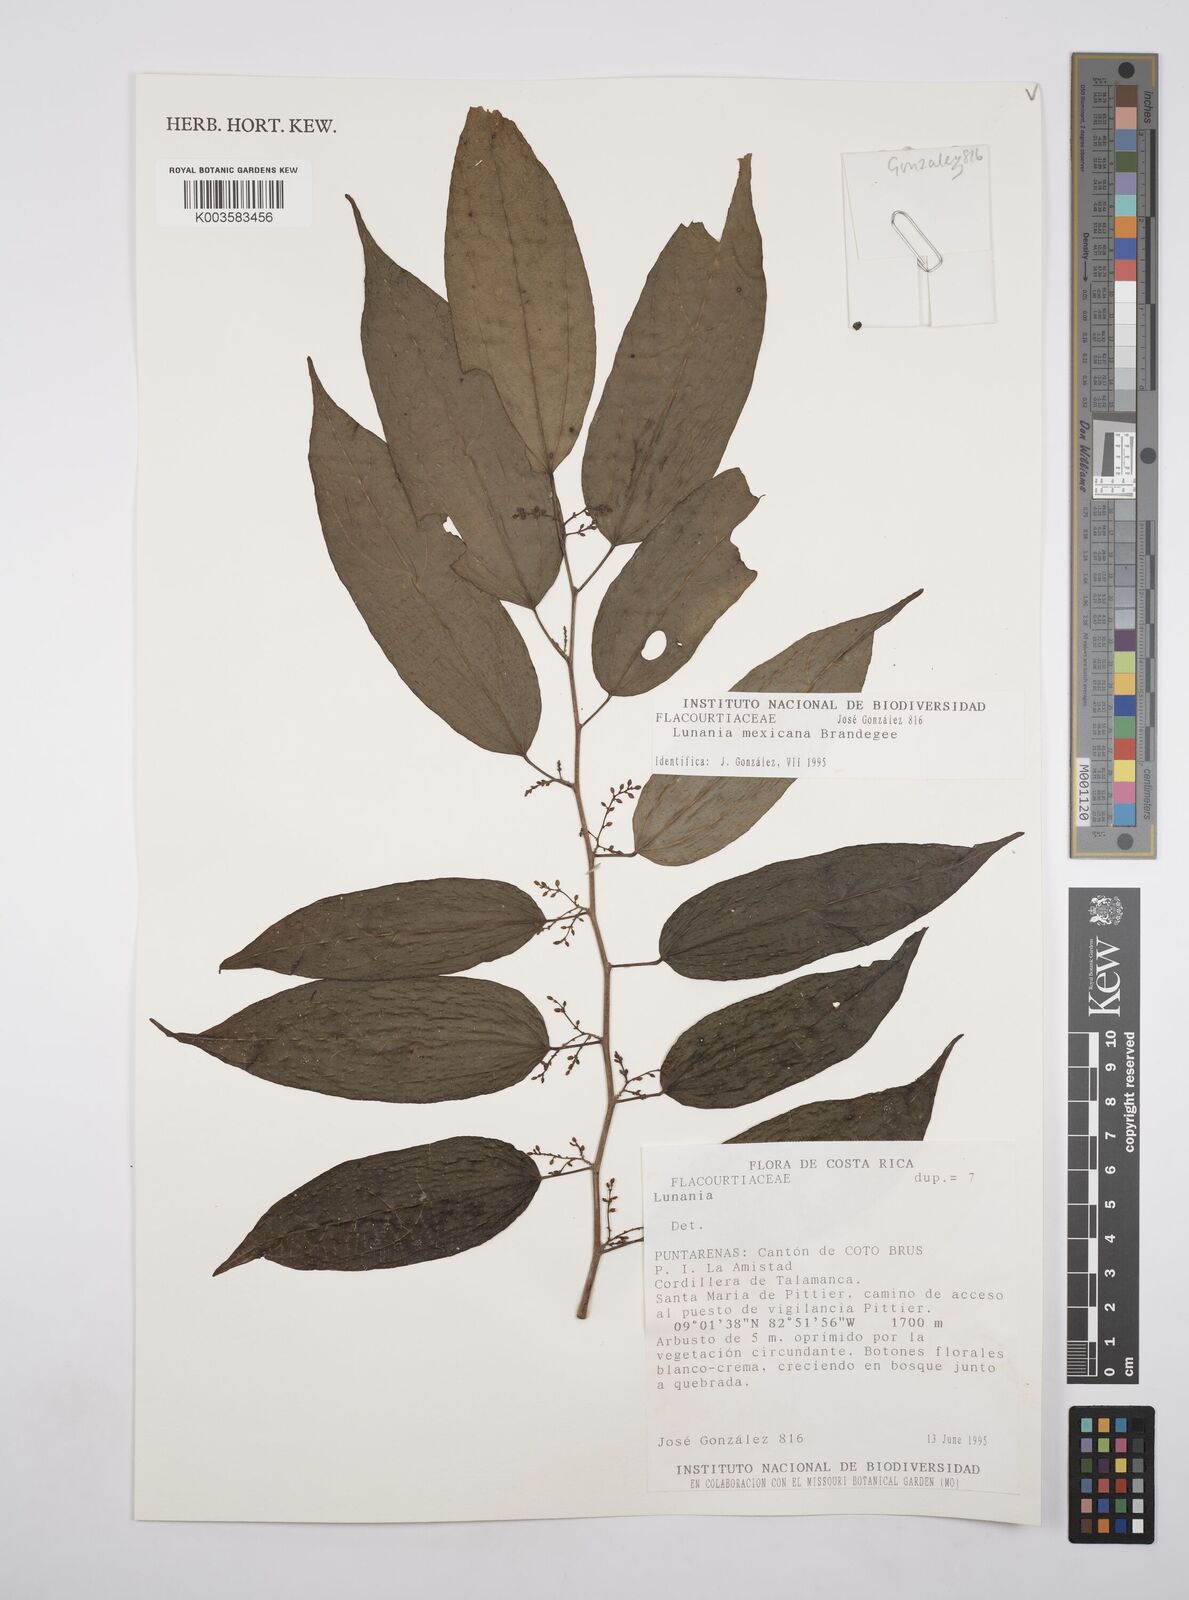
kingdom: Plantae
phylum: Tracheophyta
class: Magnoliopsida
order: Malpighiales
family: Salicaceae
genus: Lunania
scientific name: Lunania mexicana
